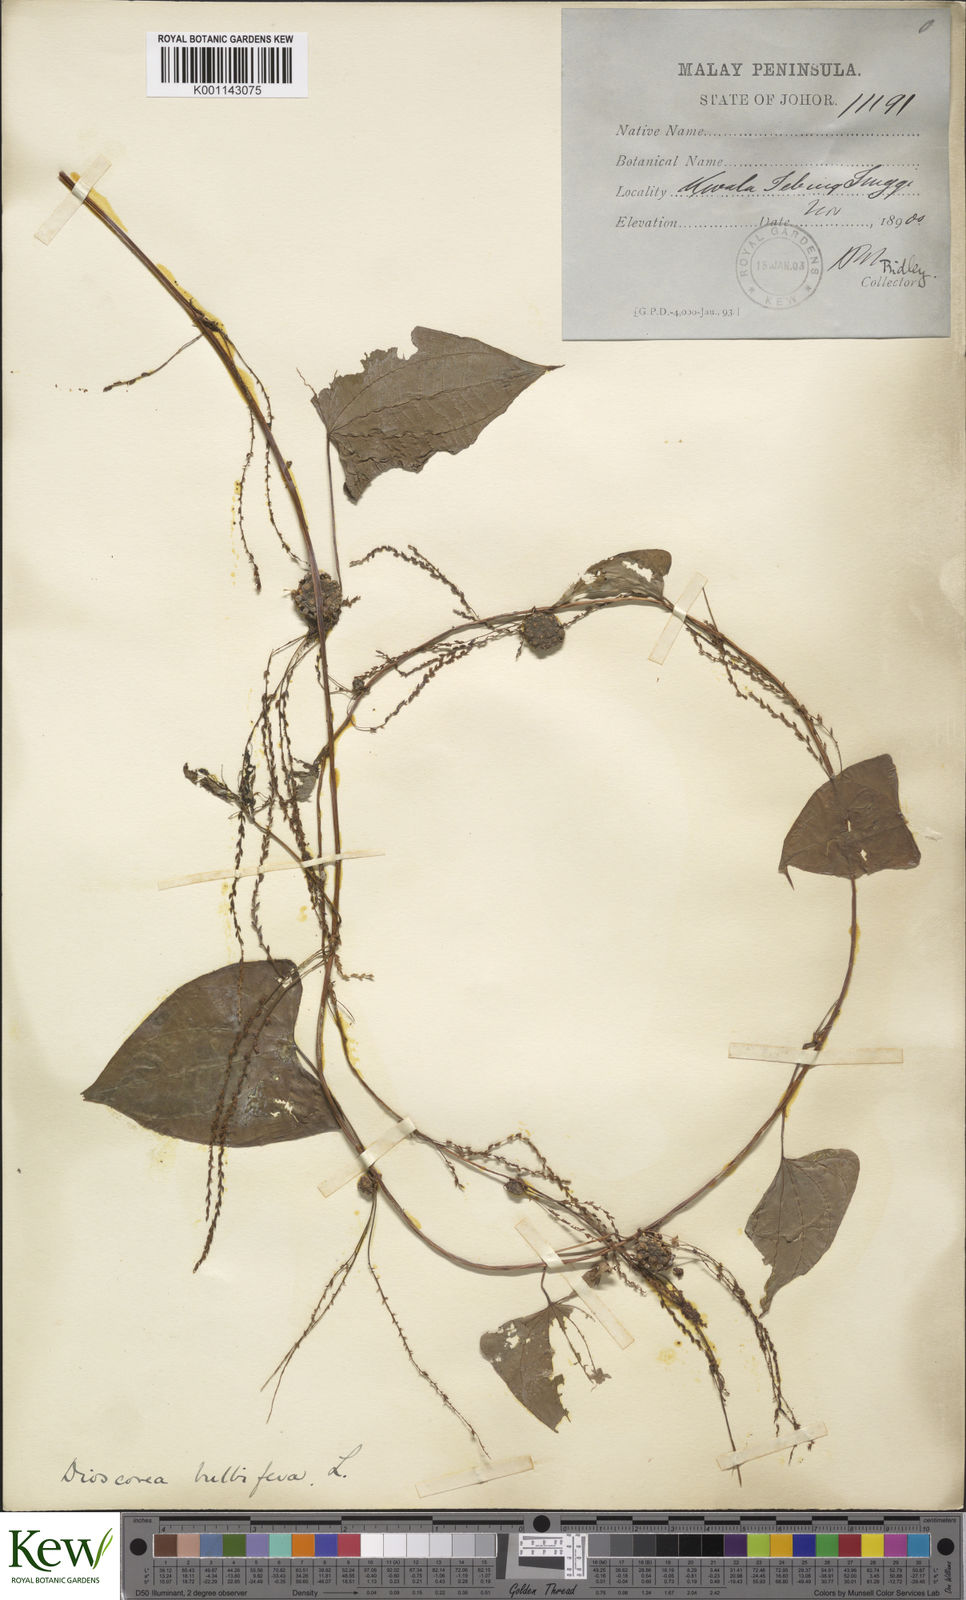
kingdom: Plantae
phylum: Tracheophyta
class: Liliopsida
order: Dioscoreales
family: Dioscoreaceae
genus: Dioscorea
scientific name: Dioscorea bulbifera
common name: Air yam
